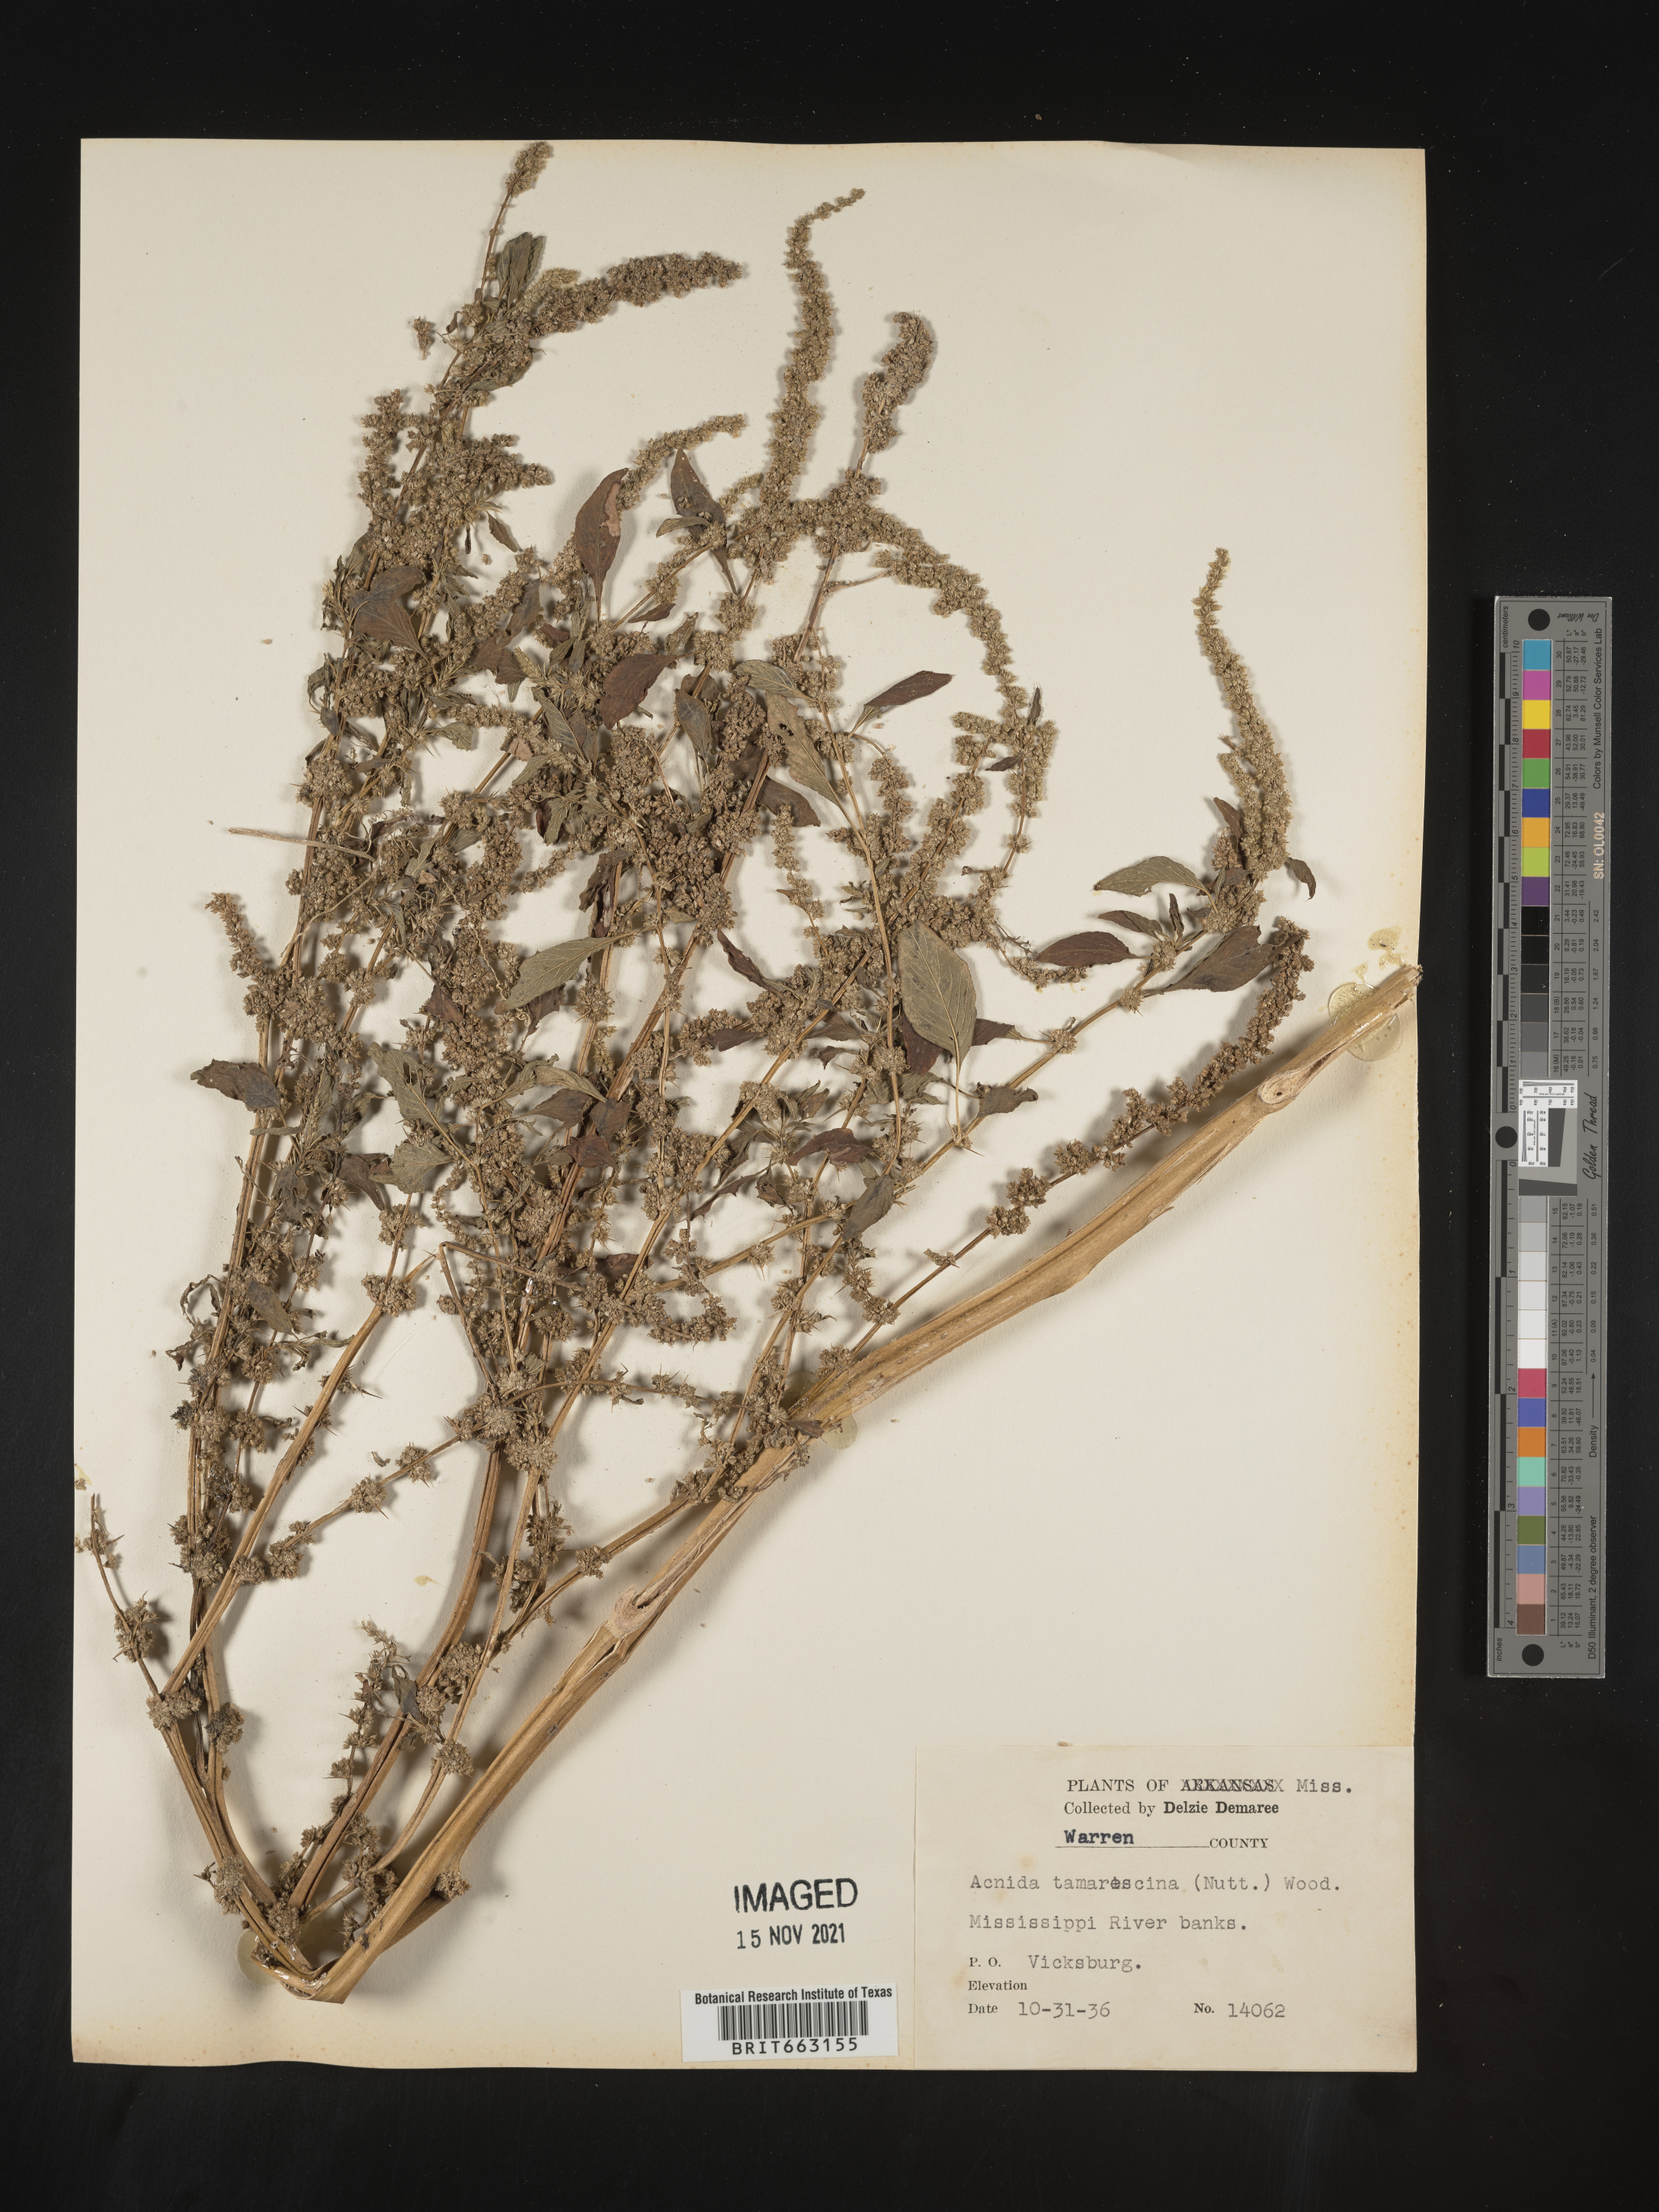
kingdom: Plantae
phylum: Tracheophyta
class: Magnoliopsida
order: Caryophyllales
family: Amaranthaceae
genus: Amaranthus
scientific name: Amaranthus tamariscinus
